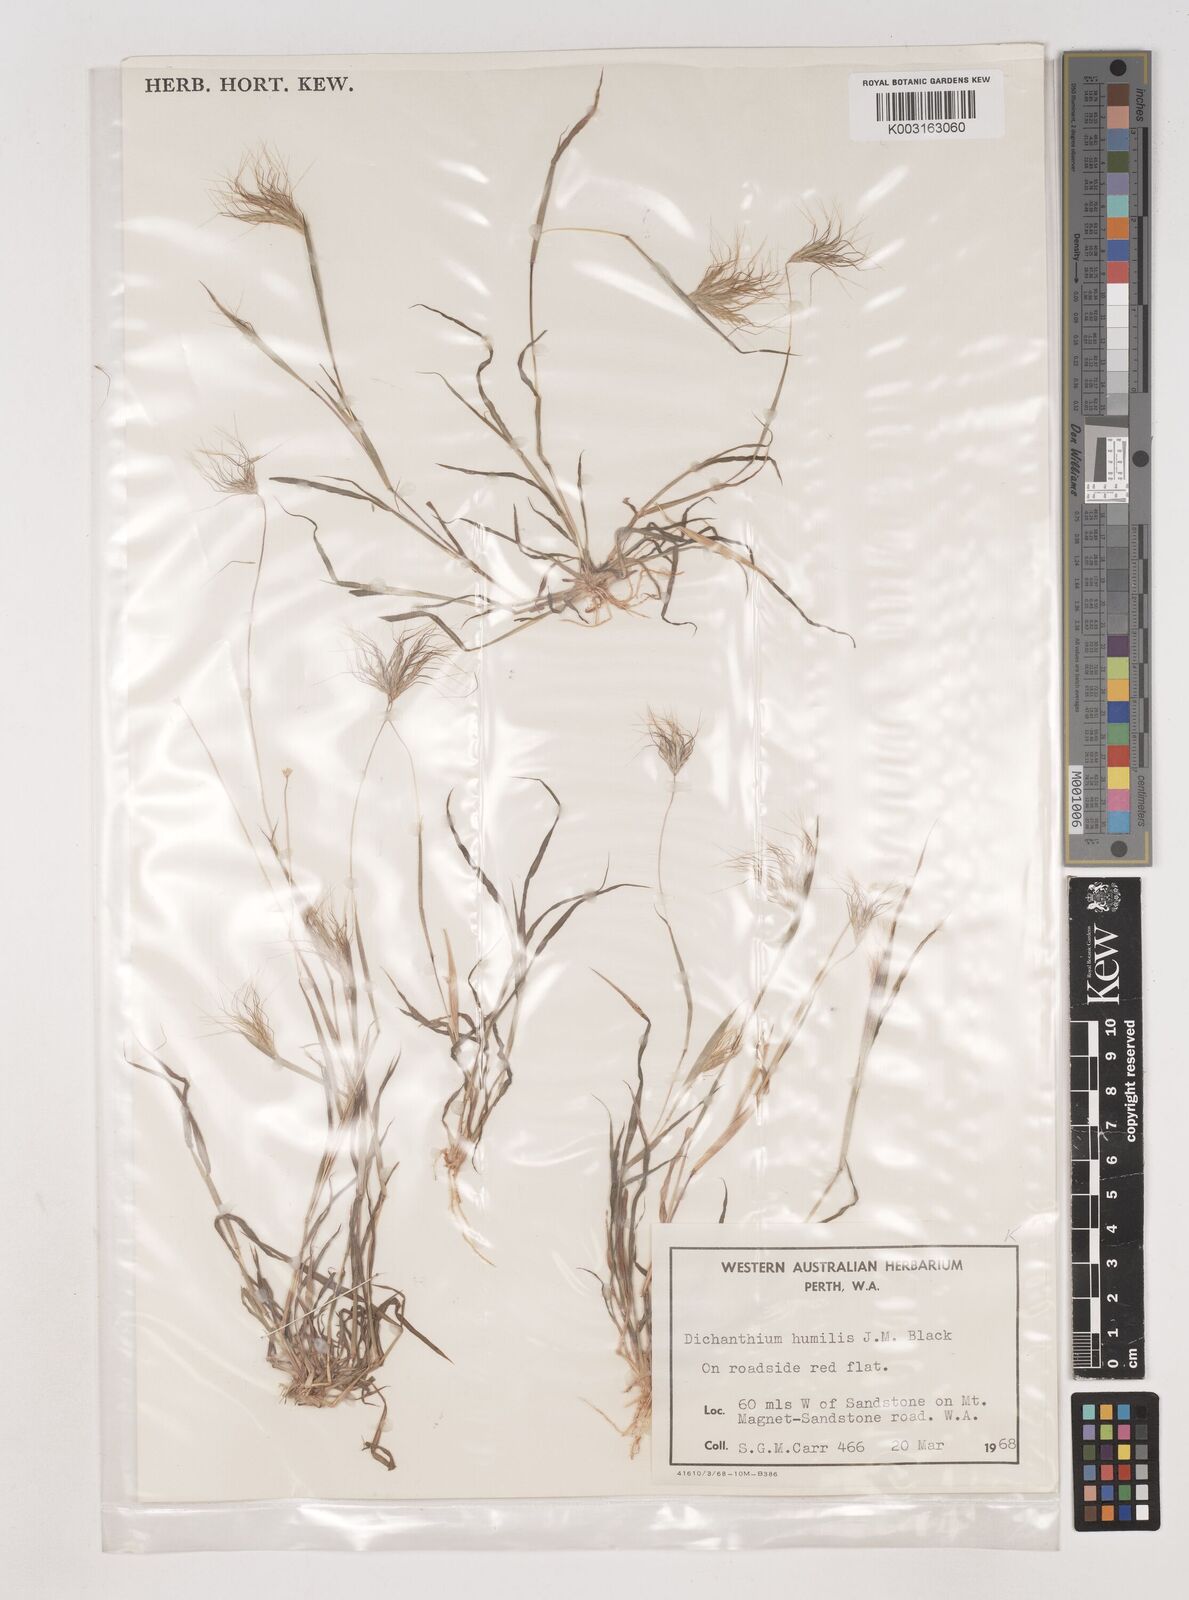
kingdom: Plantae
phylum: Tracheophyta
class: Liliopsida
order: Poales
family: Poaceae
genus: Dichanthium
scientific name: Dichanthium sericeum
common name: Silky bluestem
